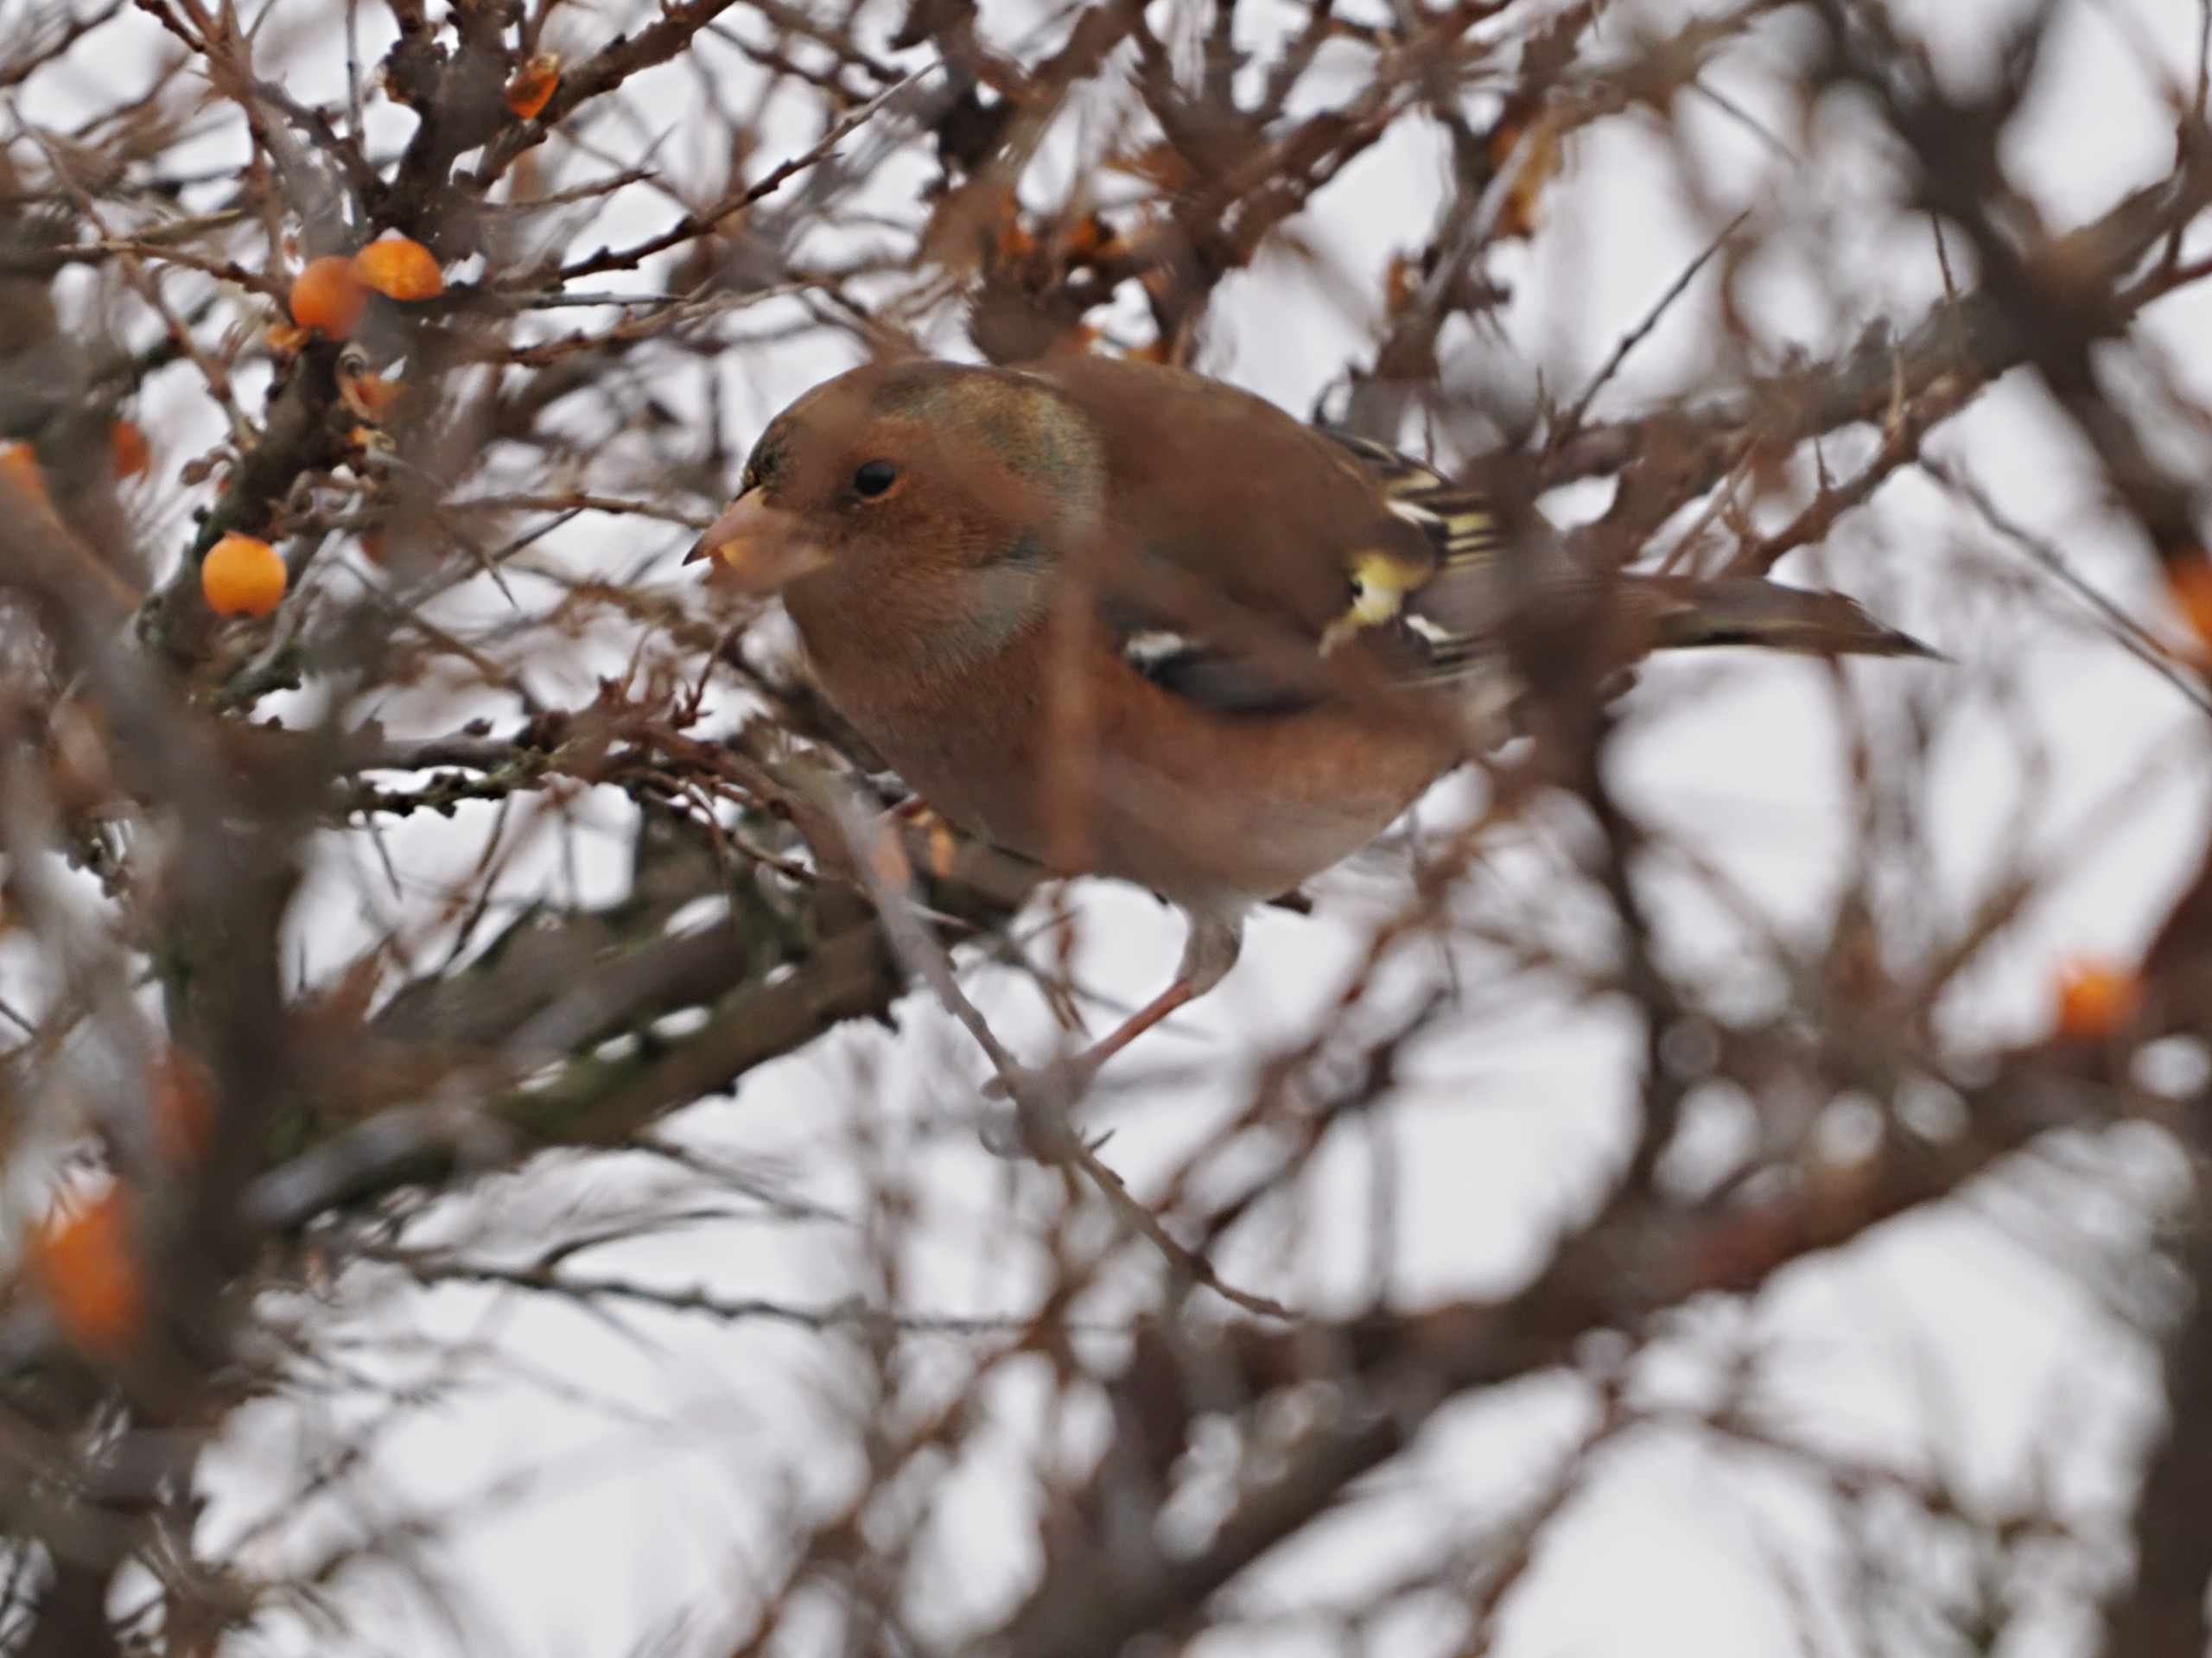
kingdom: Animalia
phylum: Chordata
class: Aves
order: Passeriformes
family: Fringillidae
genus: Fringilla
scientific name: Fringilla coelebs
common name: Bogfinke
